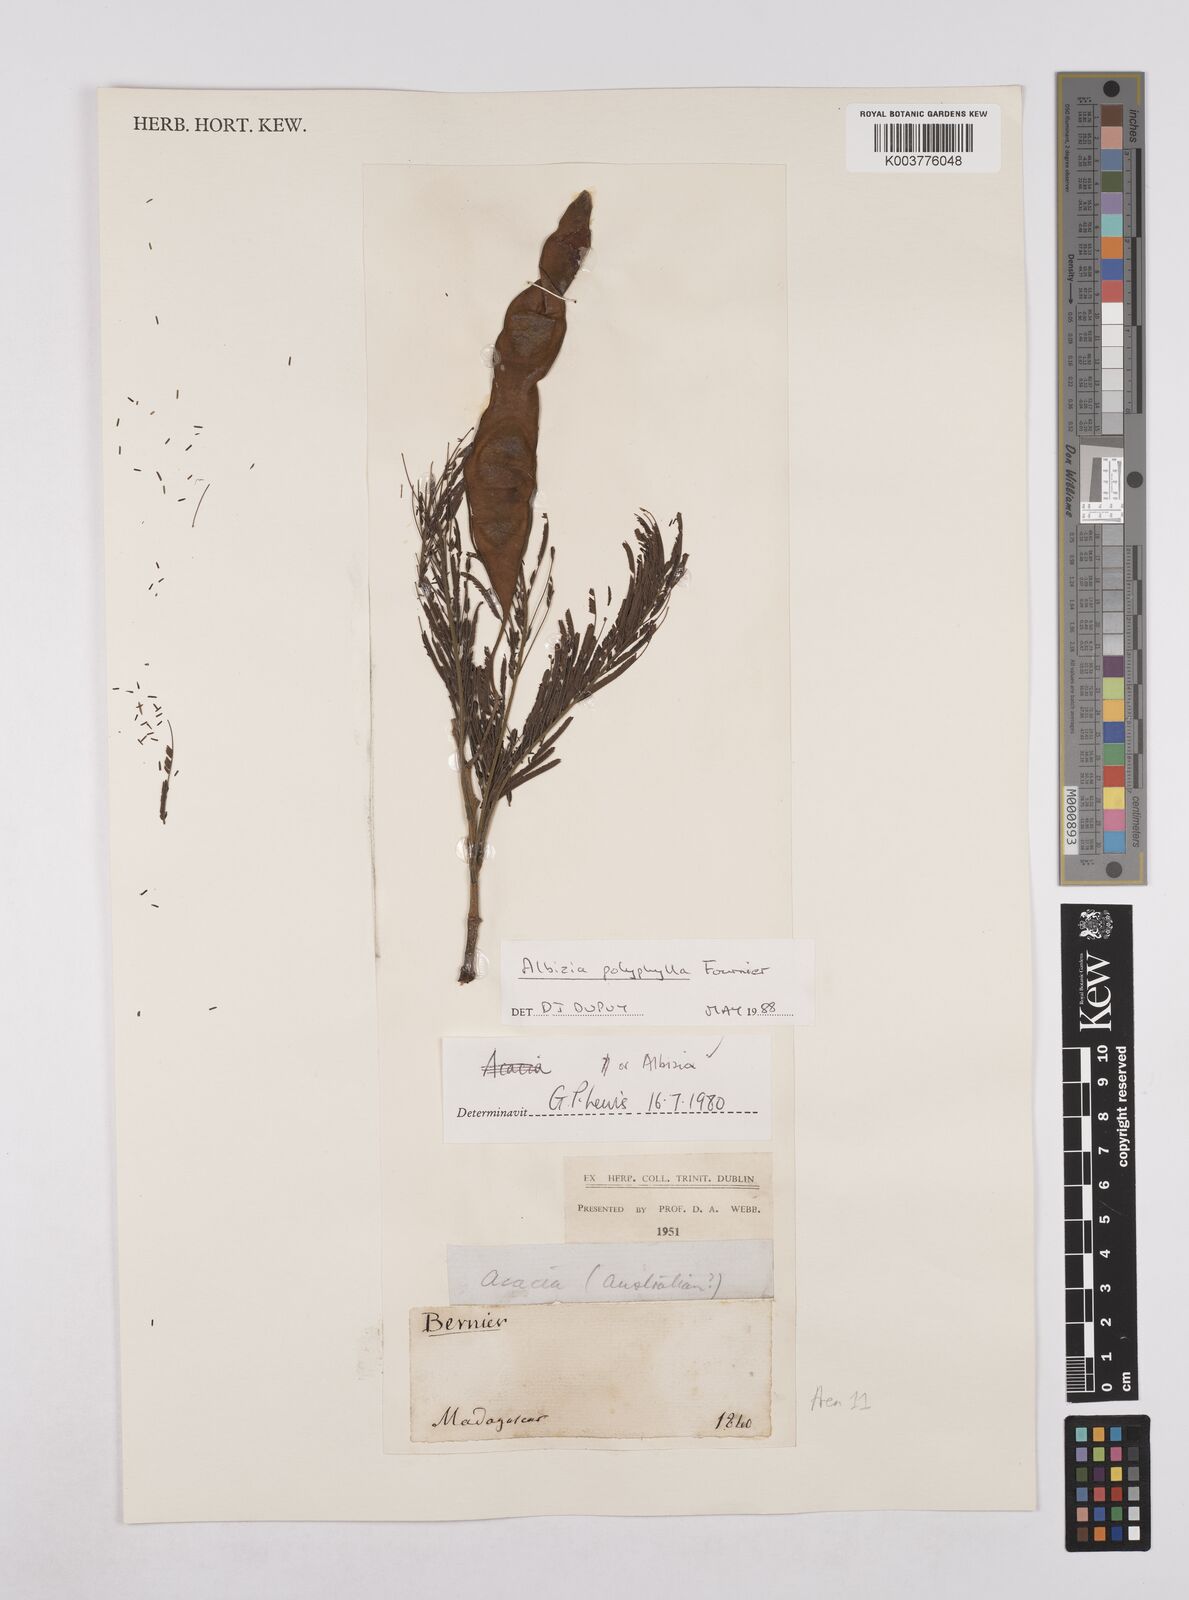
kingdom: Plantae
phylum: Tracheophyta
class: Magnoliopsida
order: Fabales
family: Fabaceae
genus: Albizia
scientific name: Albizia polyphylla
